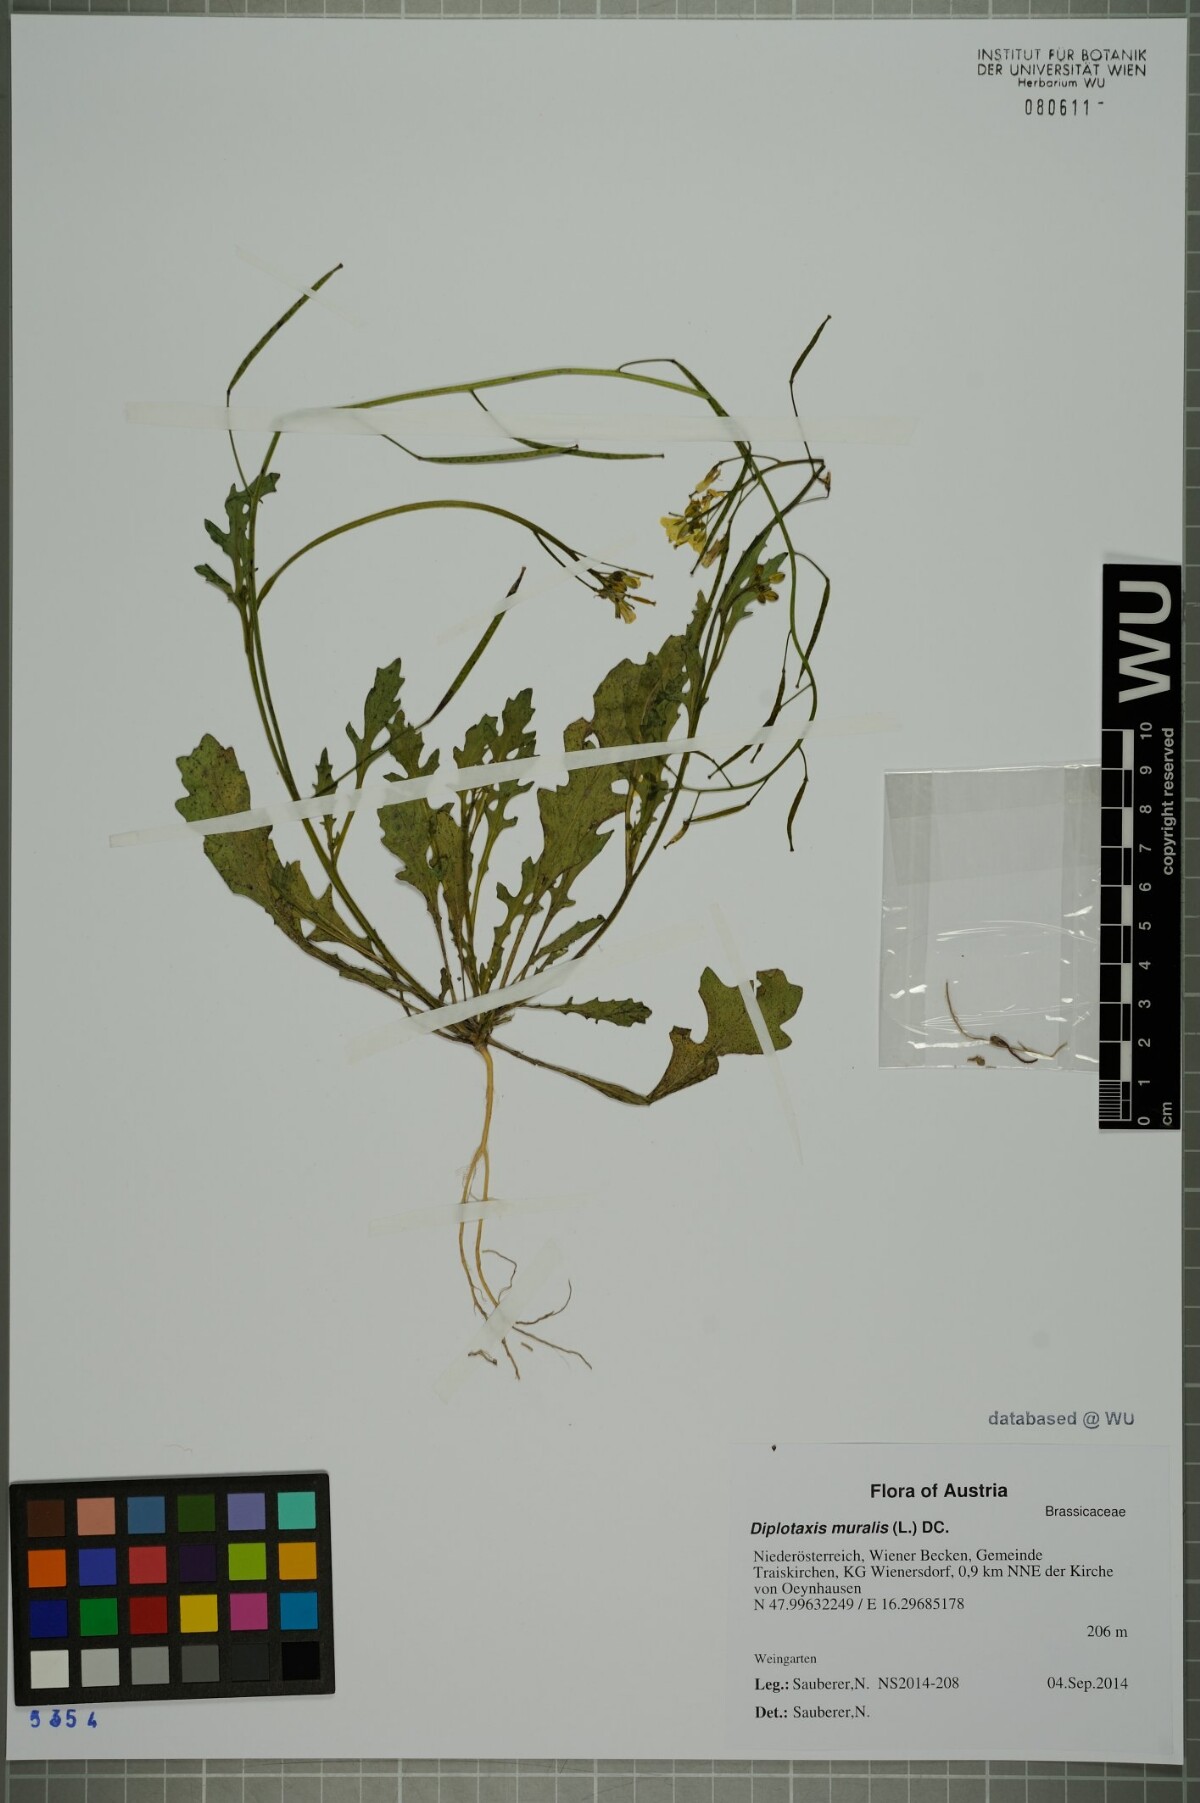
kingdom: Plantae
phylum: Tracheophyta
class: Magnoliopsida
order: Brassicales
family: Brassicaceae
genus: Diplotaxis
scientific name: Diplotaxis muralis
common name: Annual wall-rocket
